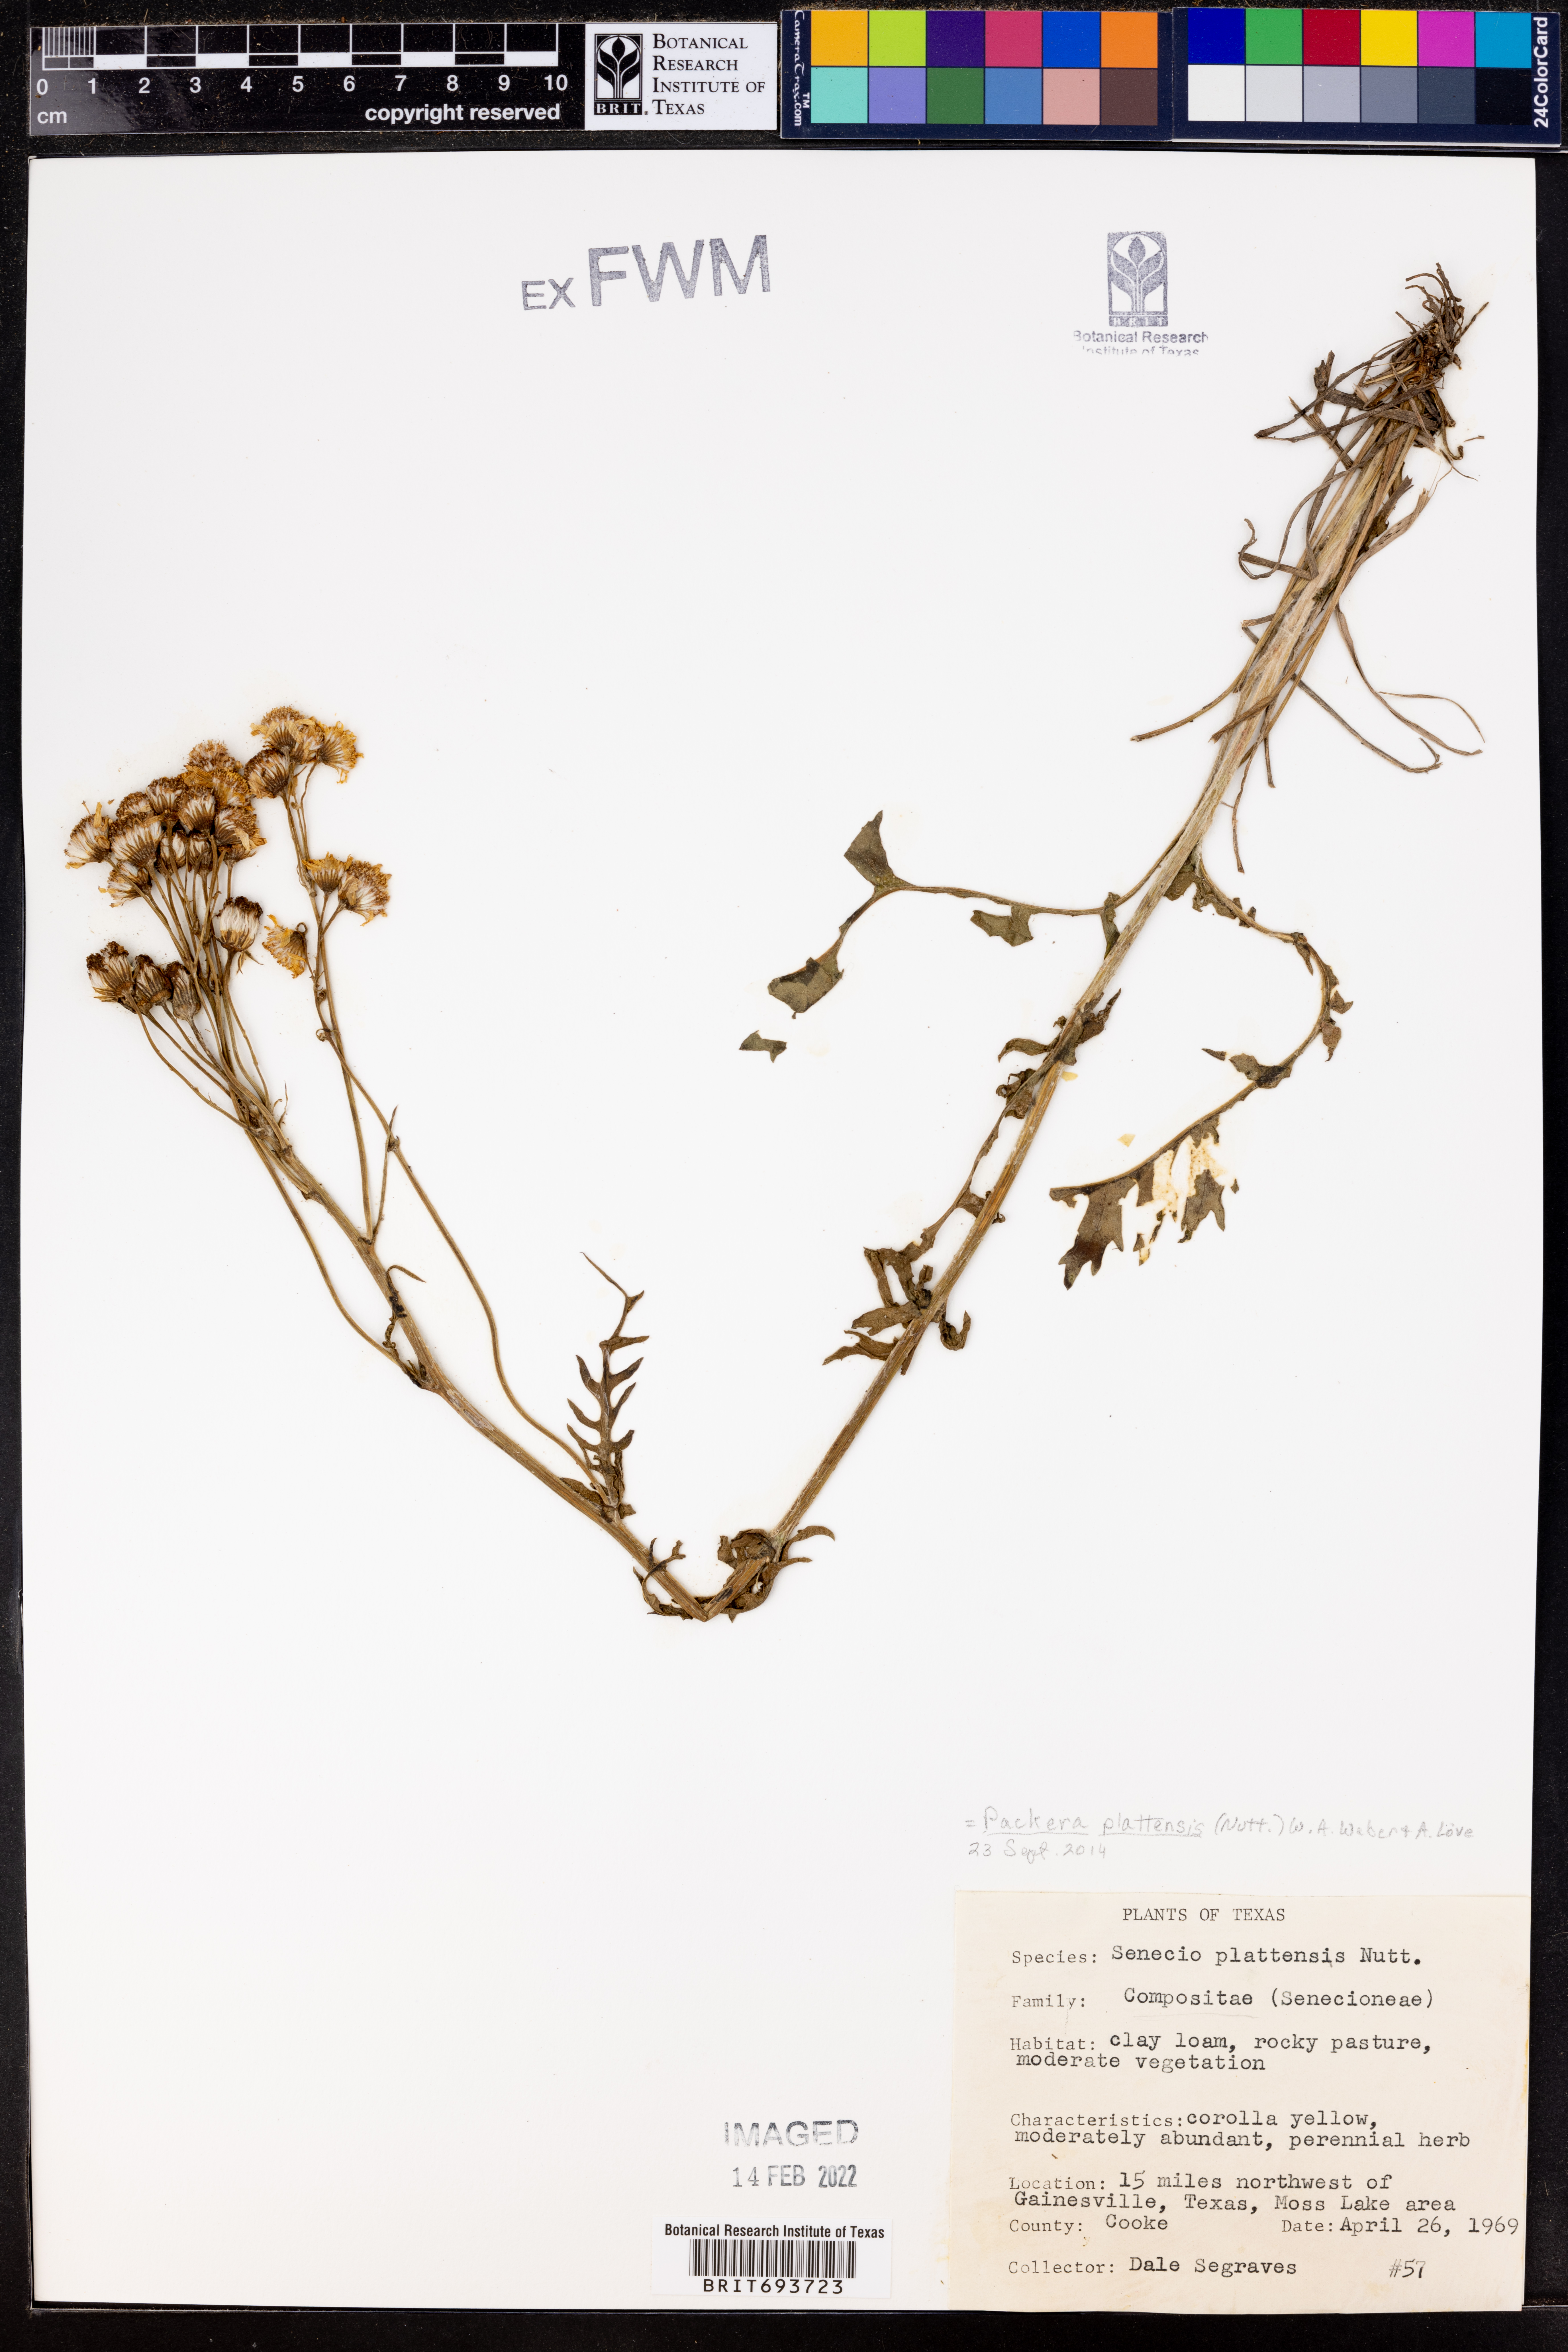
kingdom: Plantae
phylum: Tracheophyta
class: Magnoliopsida
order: Asterales
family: Asteraceae
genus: Packera
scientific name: Packera plattensis
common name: Prairie groundsel
